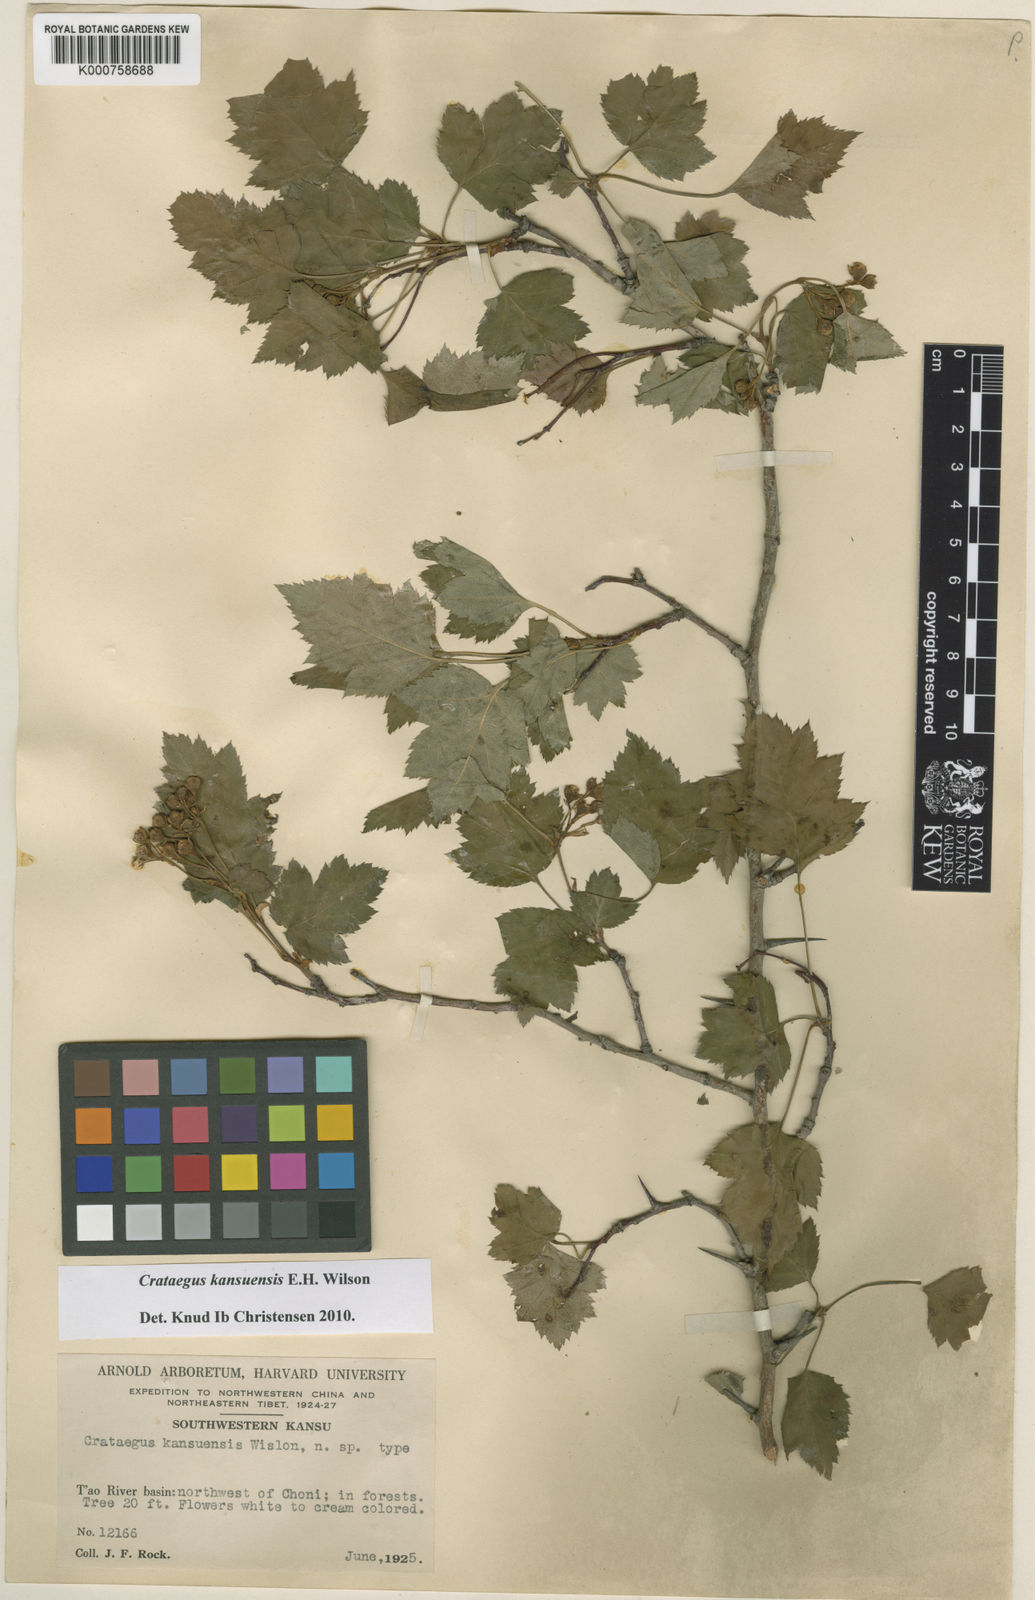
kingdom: Plantae
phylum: Tracheophyta
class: Magnoliopsida
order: Rosales
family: Rosaceae
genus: Crataegus
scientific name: Crataegus kansuensis
